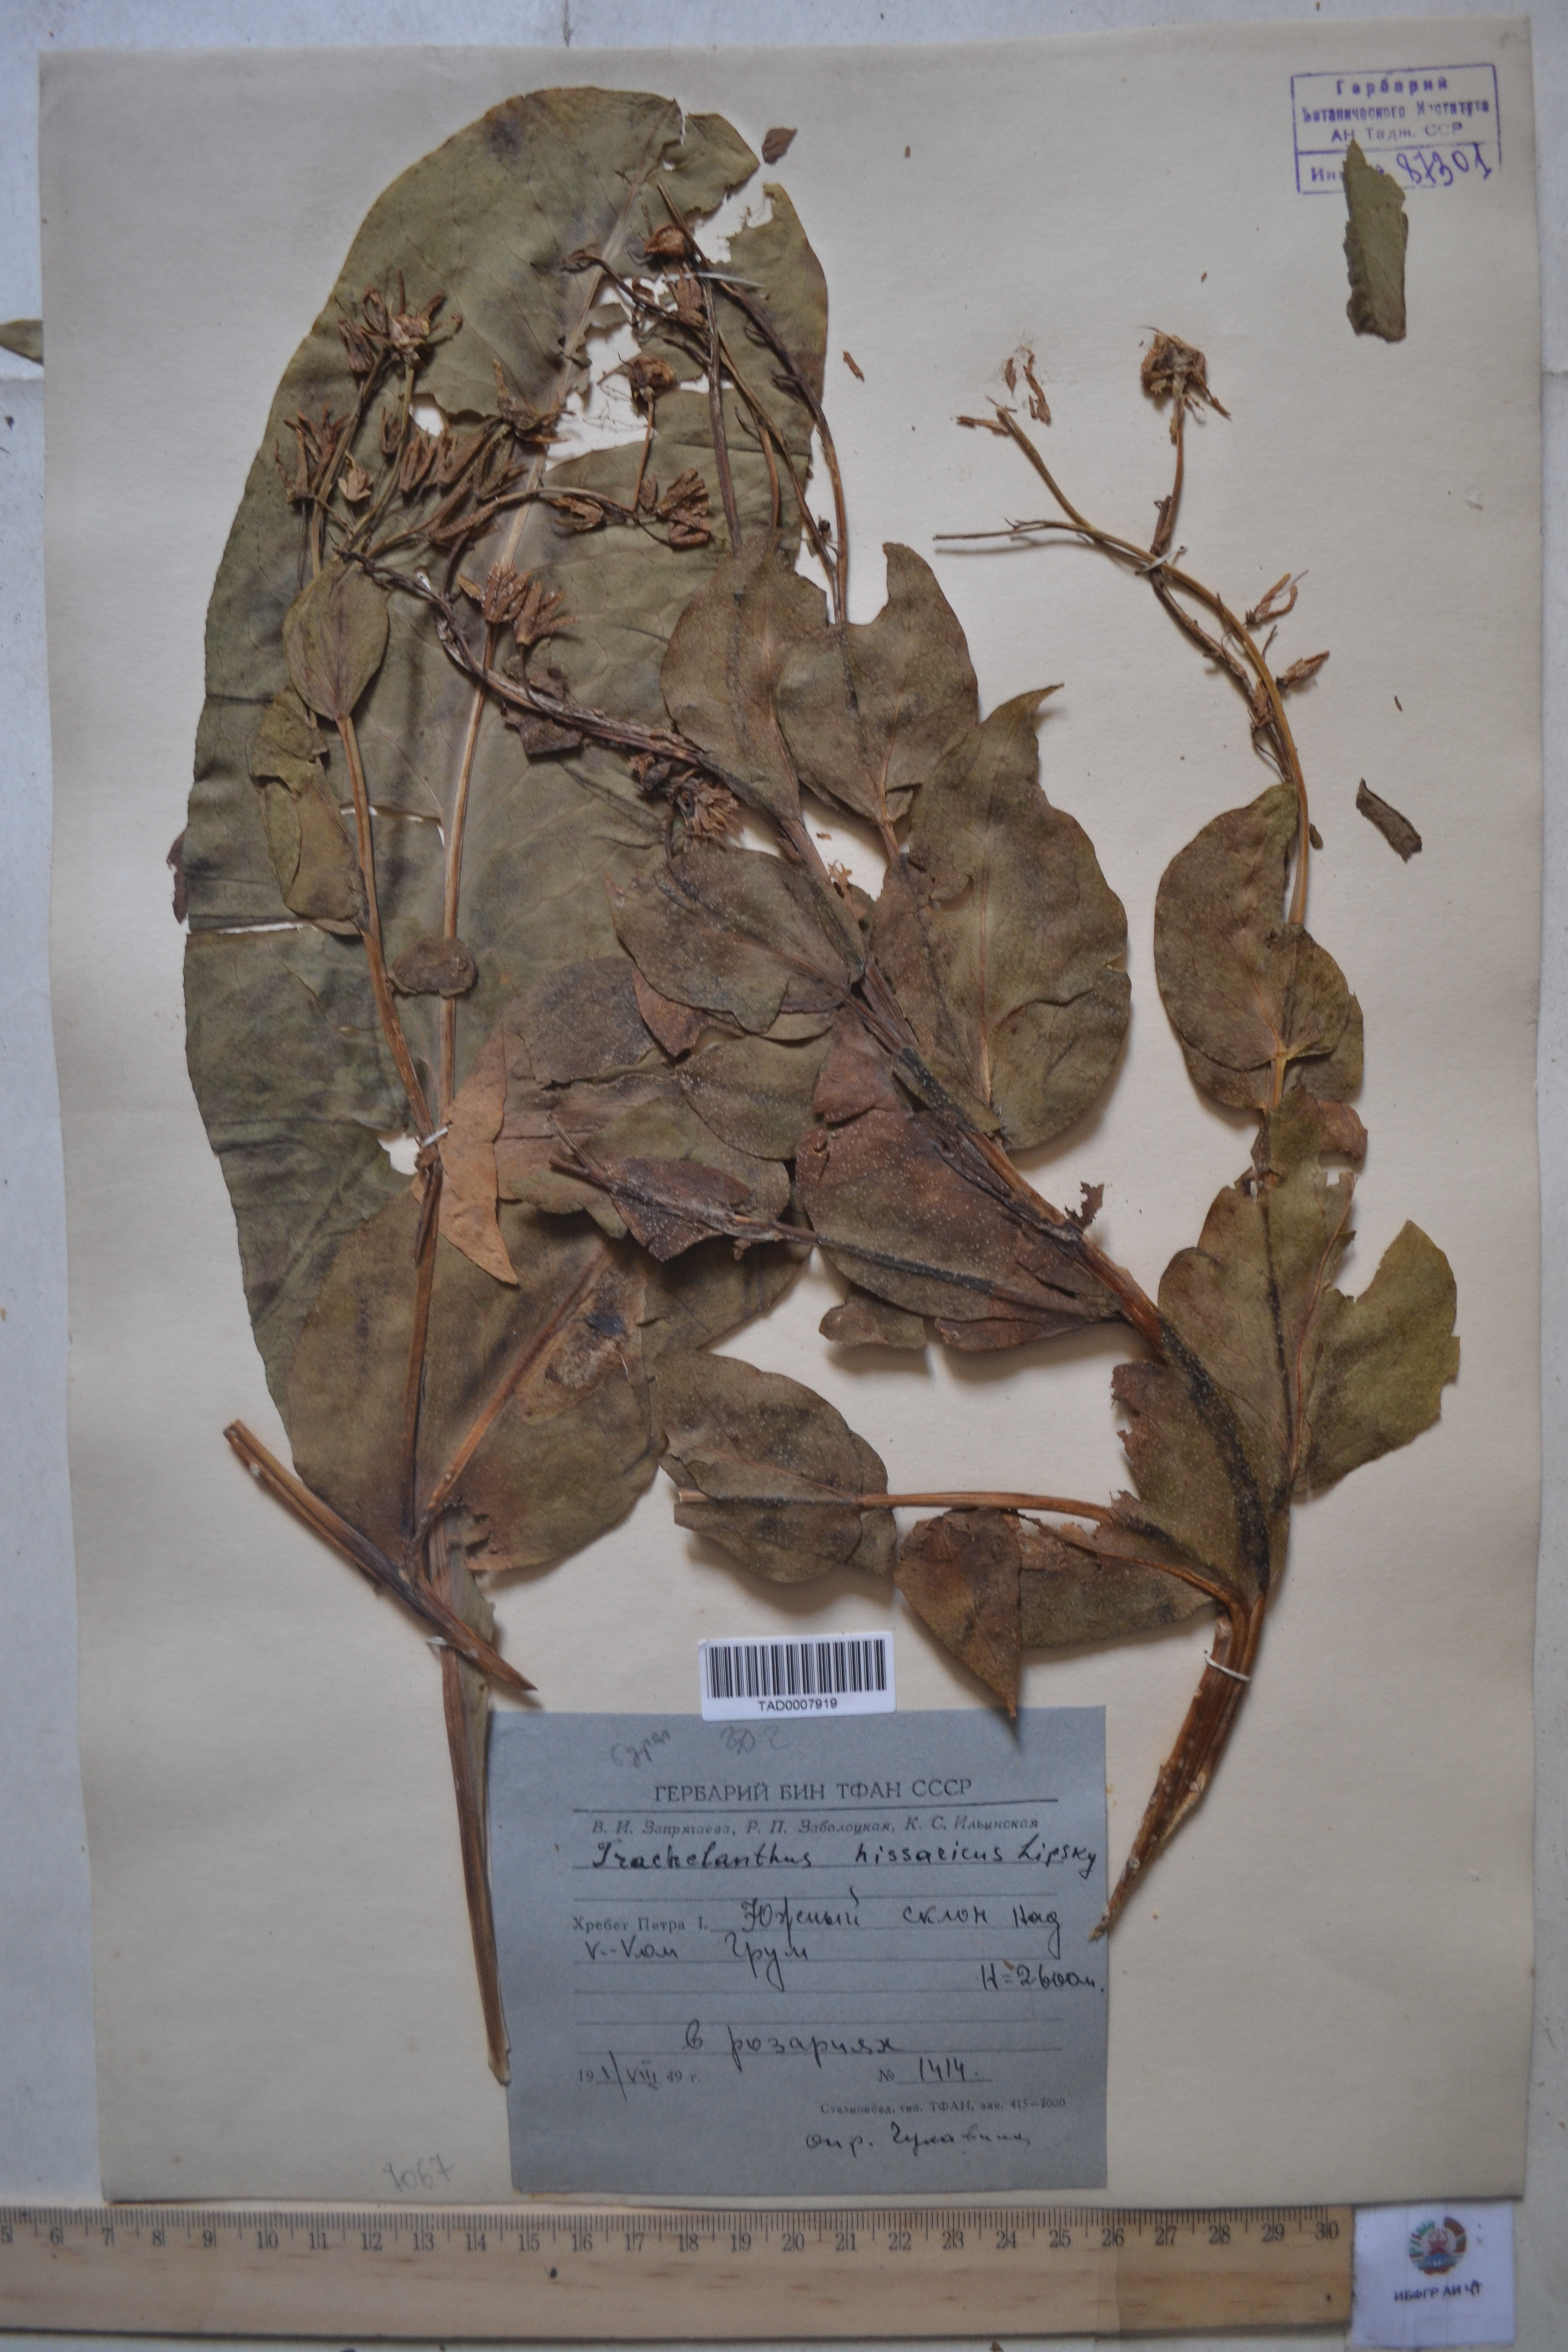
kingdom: Plantae
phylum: Tracheophyta
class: Magnoliopsida
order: Boraginales
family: Boraginaceae
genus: Lindelofia
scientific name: Lindelofia hissarica
